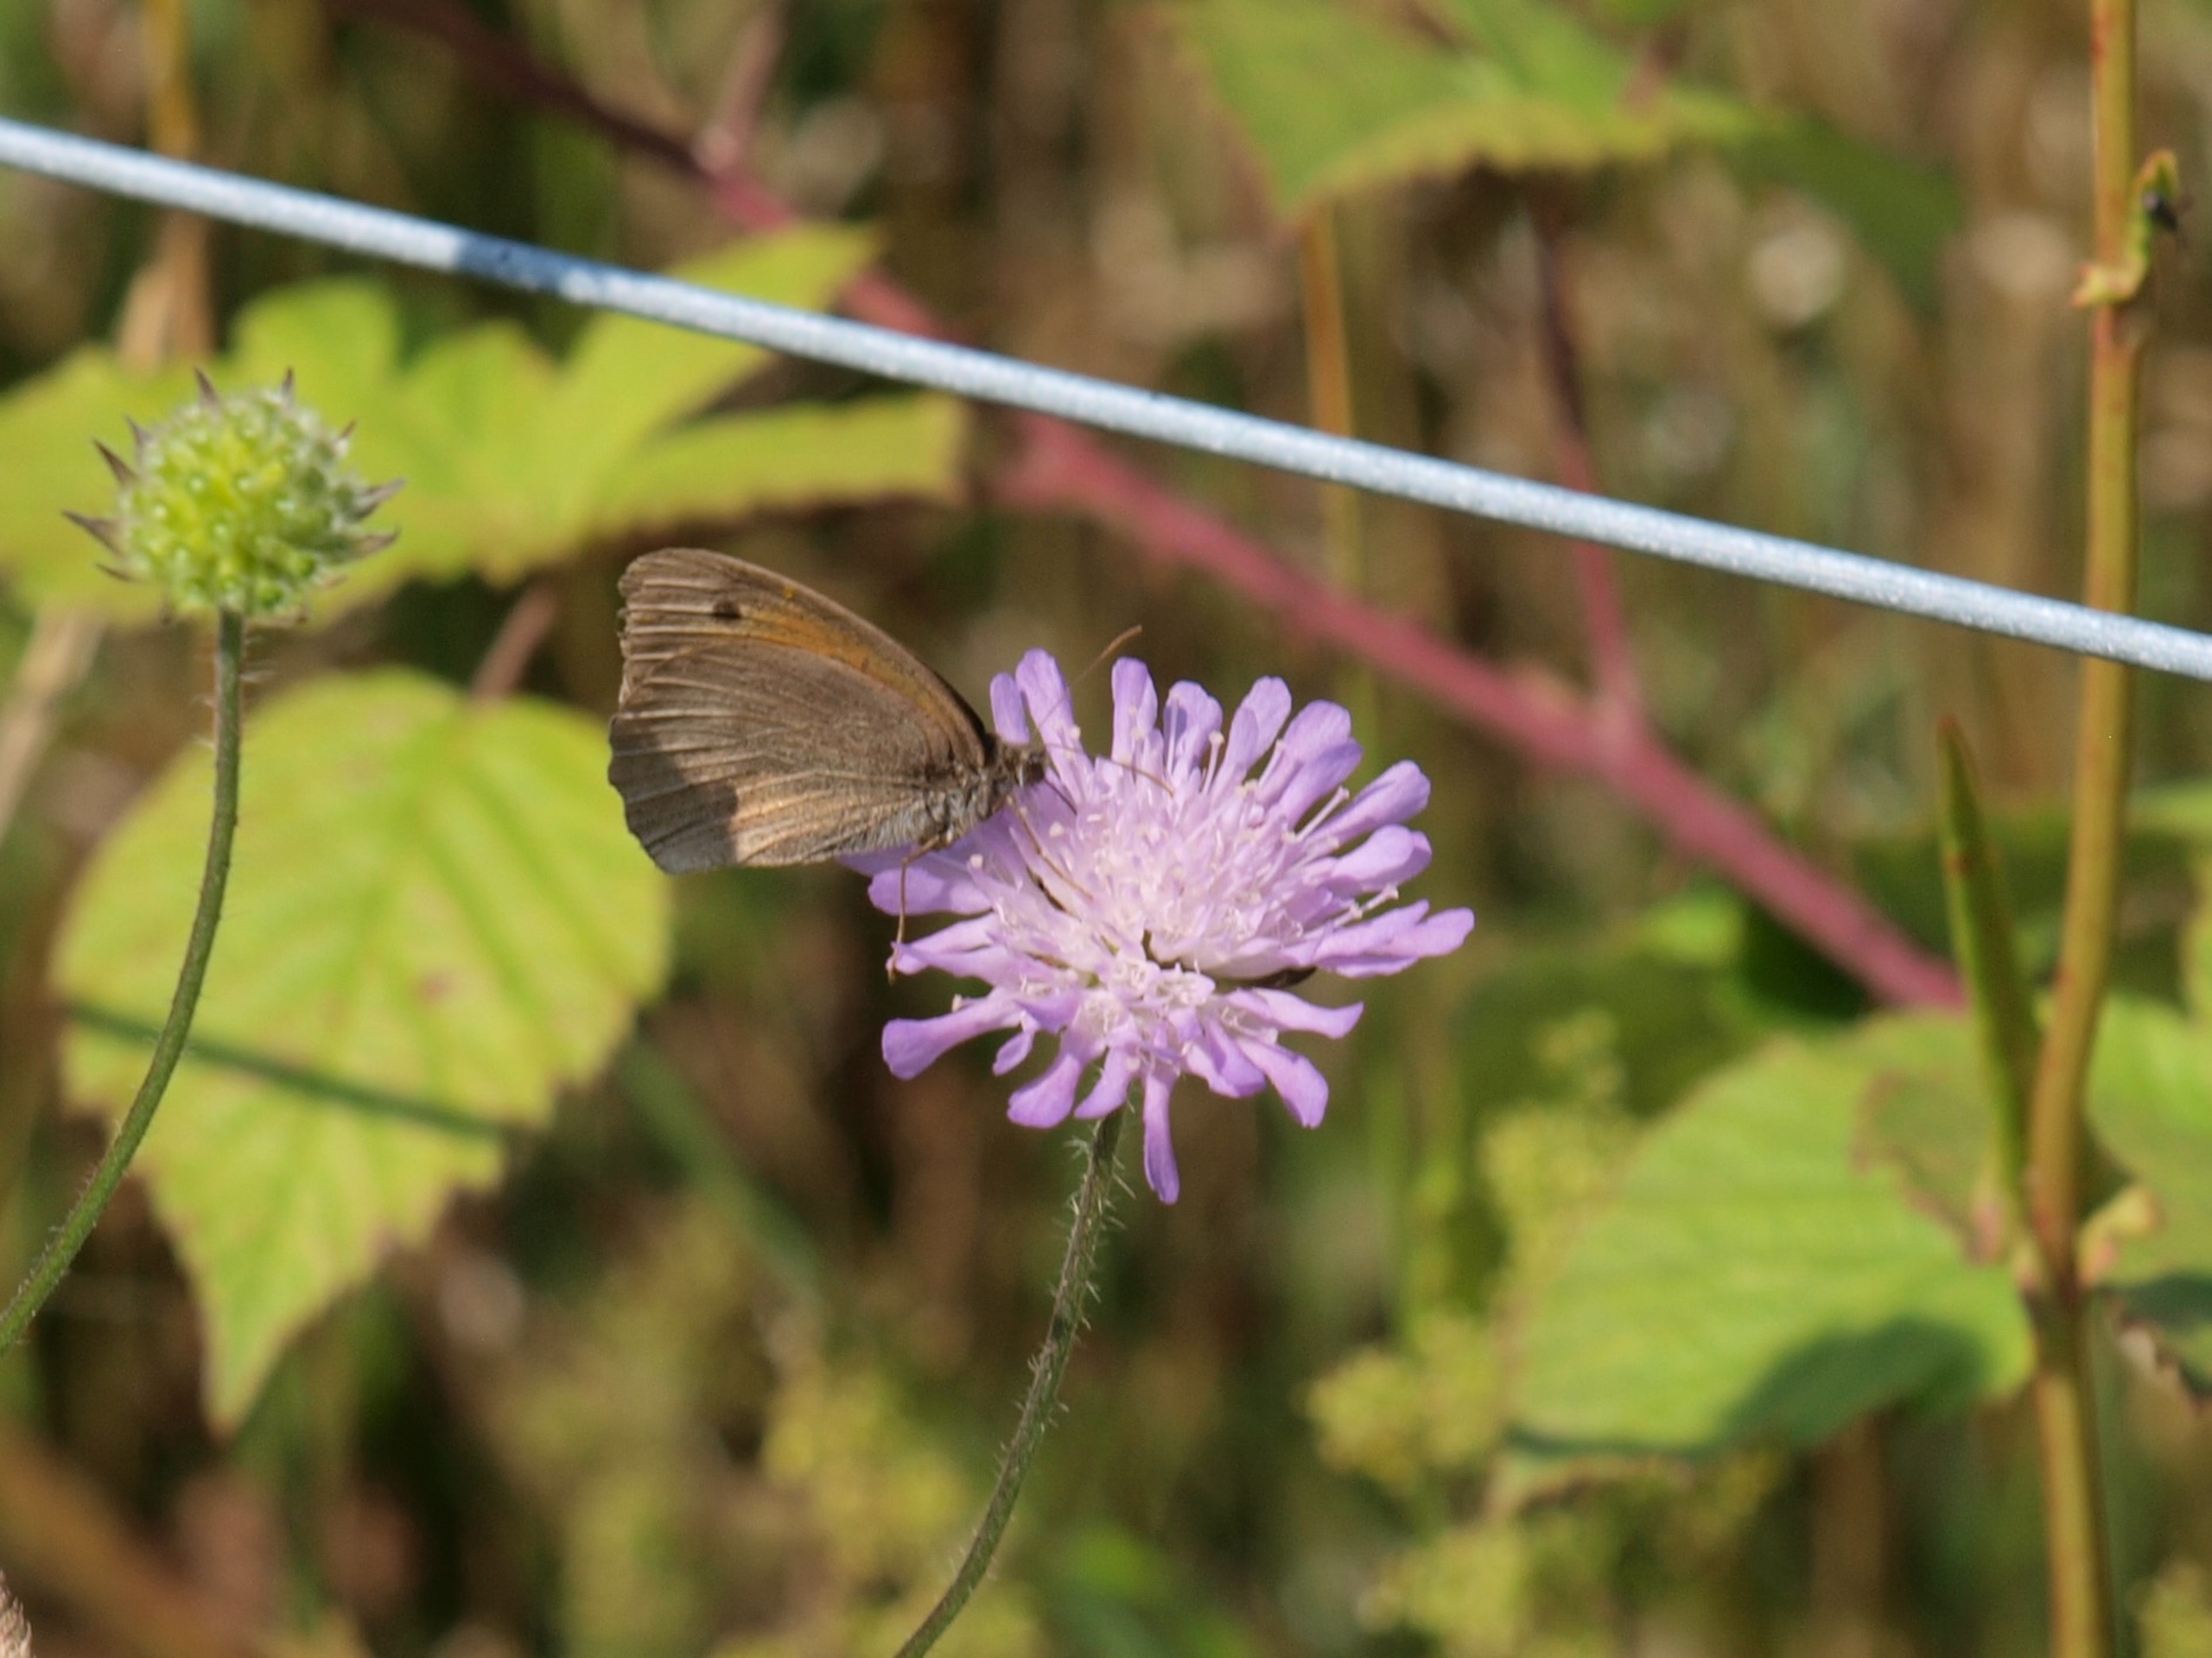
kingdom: Animalia
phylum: Arthropoda
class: Insecta
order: Lepidoptera
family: Nymphalidae
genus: Maniola
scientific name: Maniola jurtina
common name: Græsrandøje
